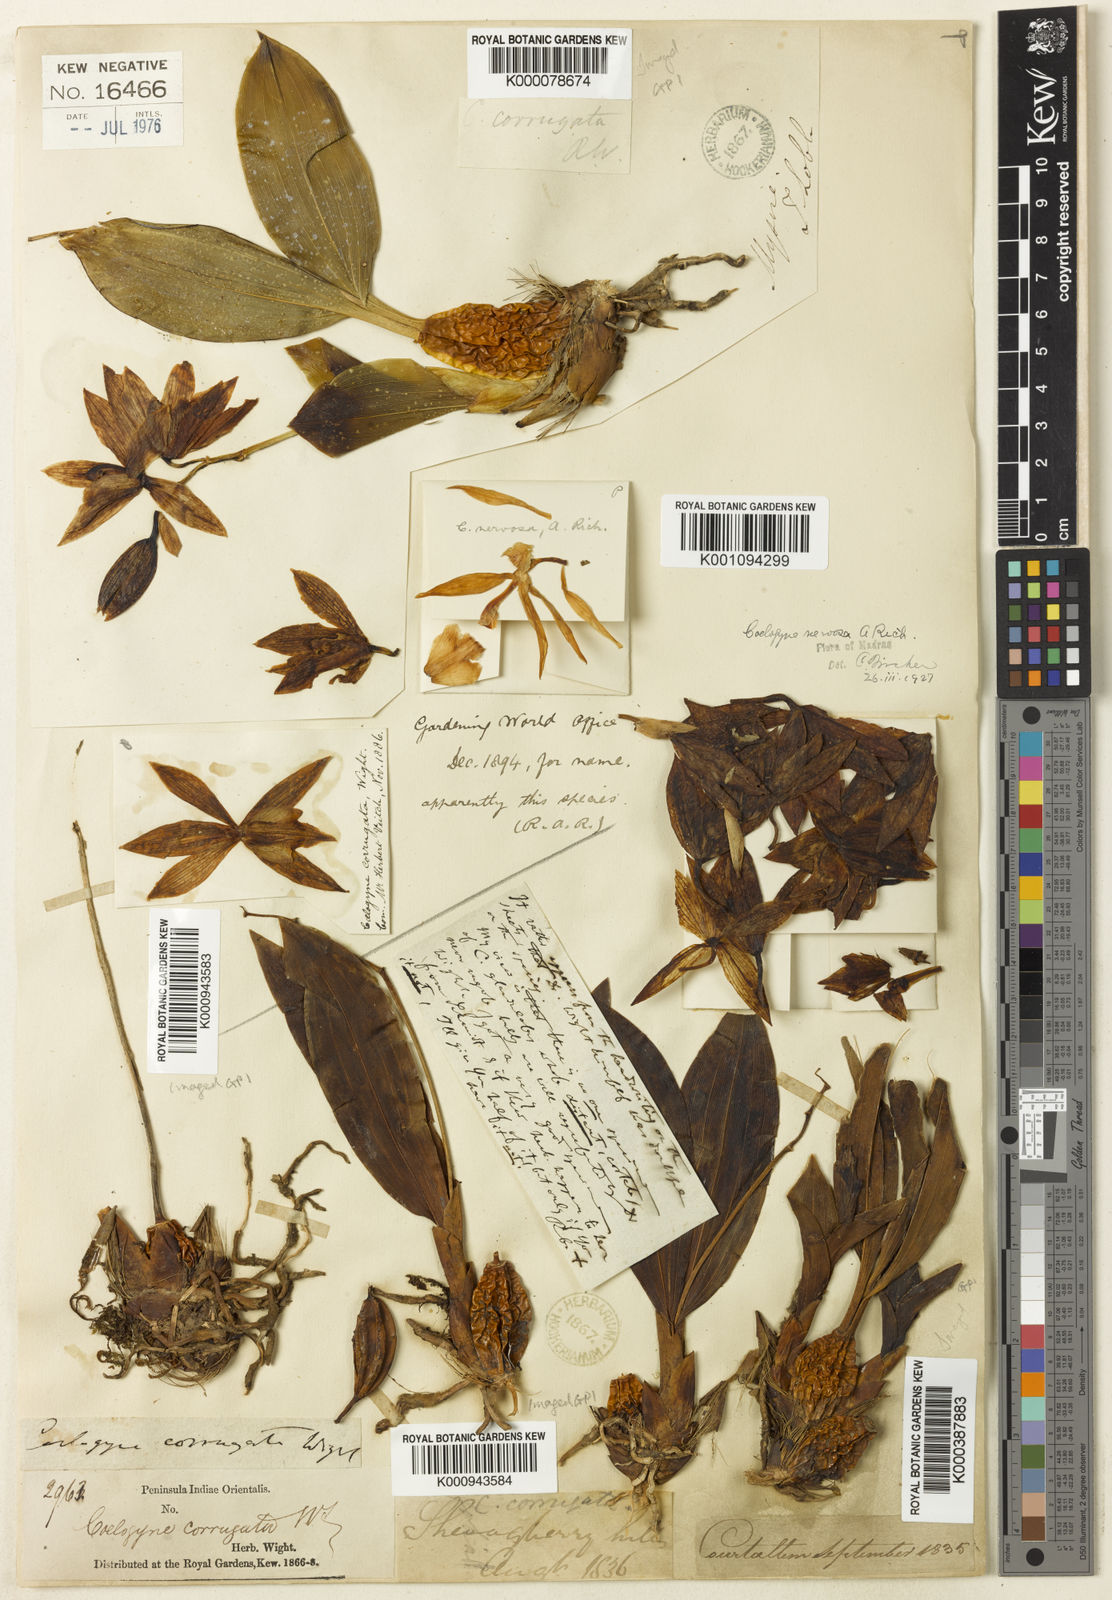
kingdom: Plantae
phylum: Tracheophyta
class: Liliopsida
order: Asparagales
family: Orchidaceae
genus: Coelogyne
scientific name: Coelogyne nervosa
